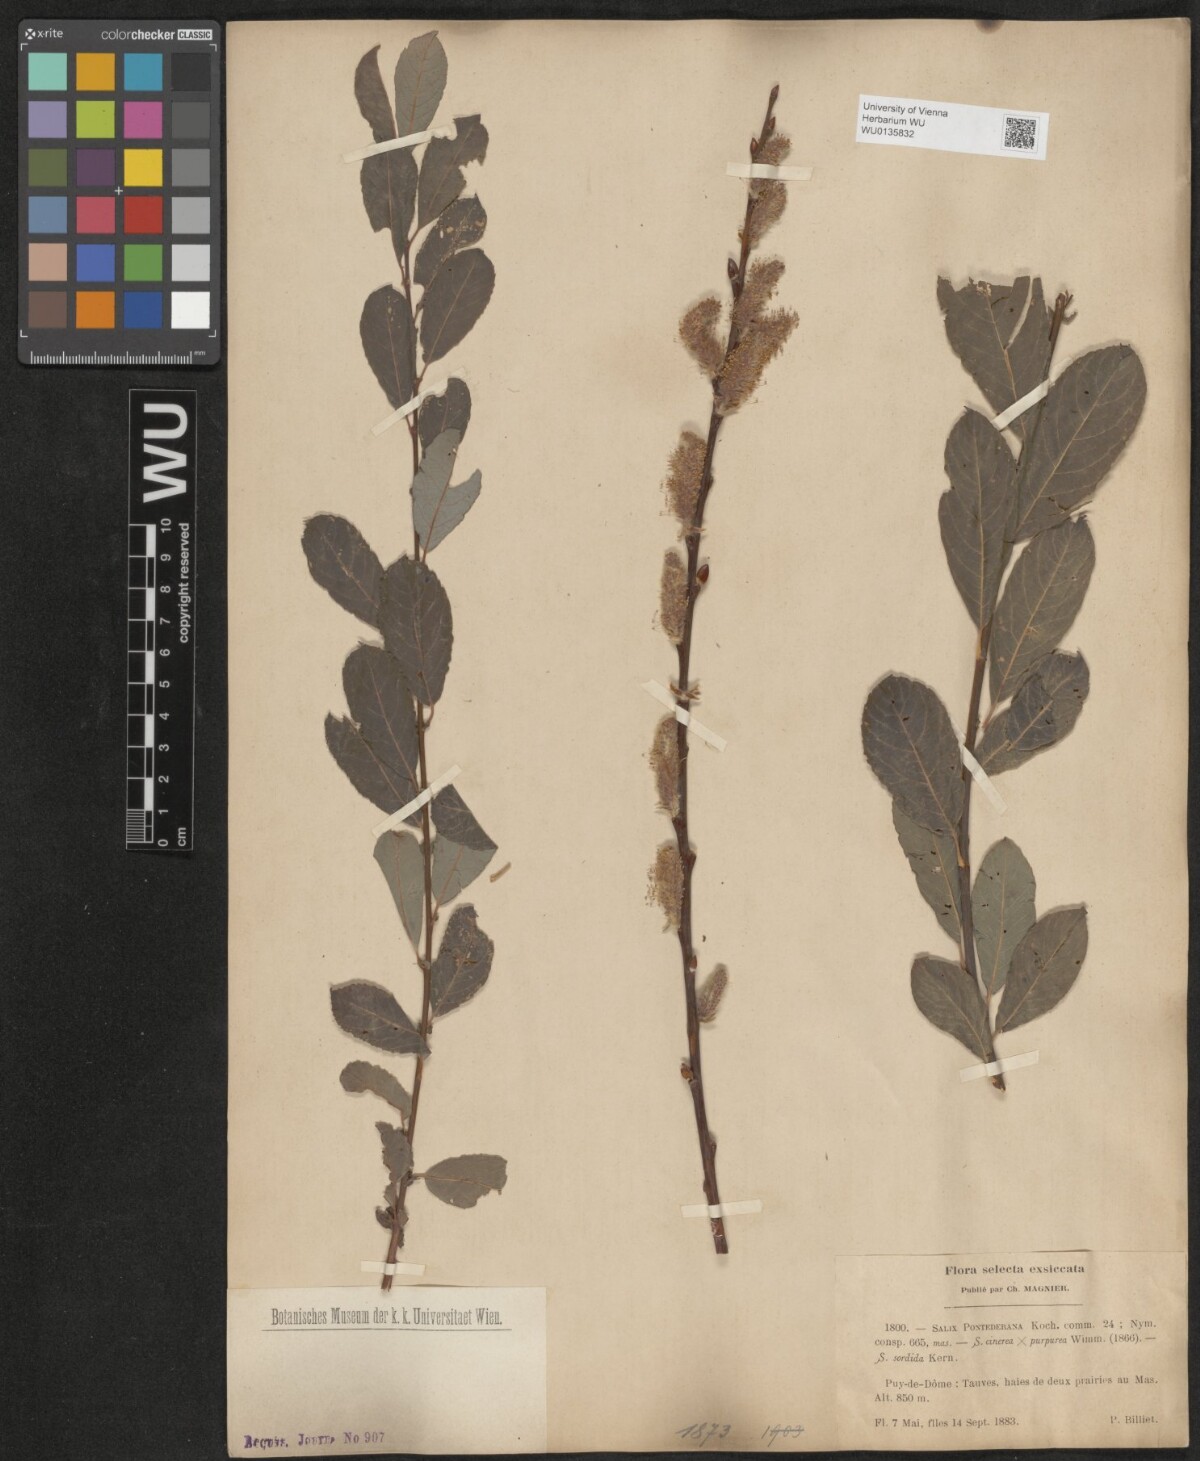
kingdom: Plantae
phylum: Tracheophyta
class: Magnoliopsida
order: Malpighiales
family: Salicaceae
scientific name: Salicaceae
